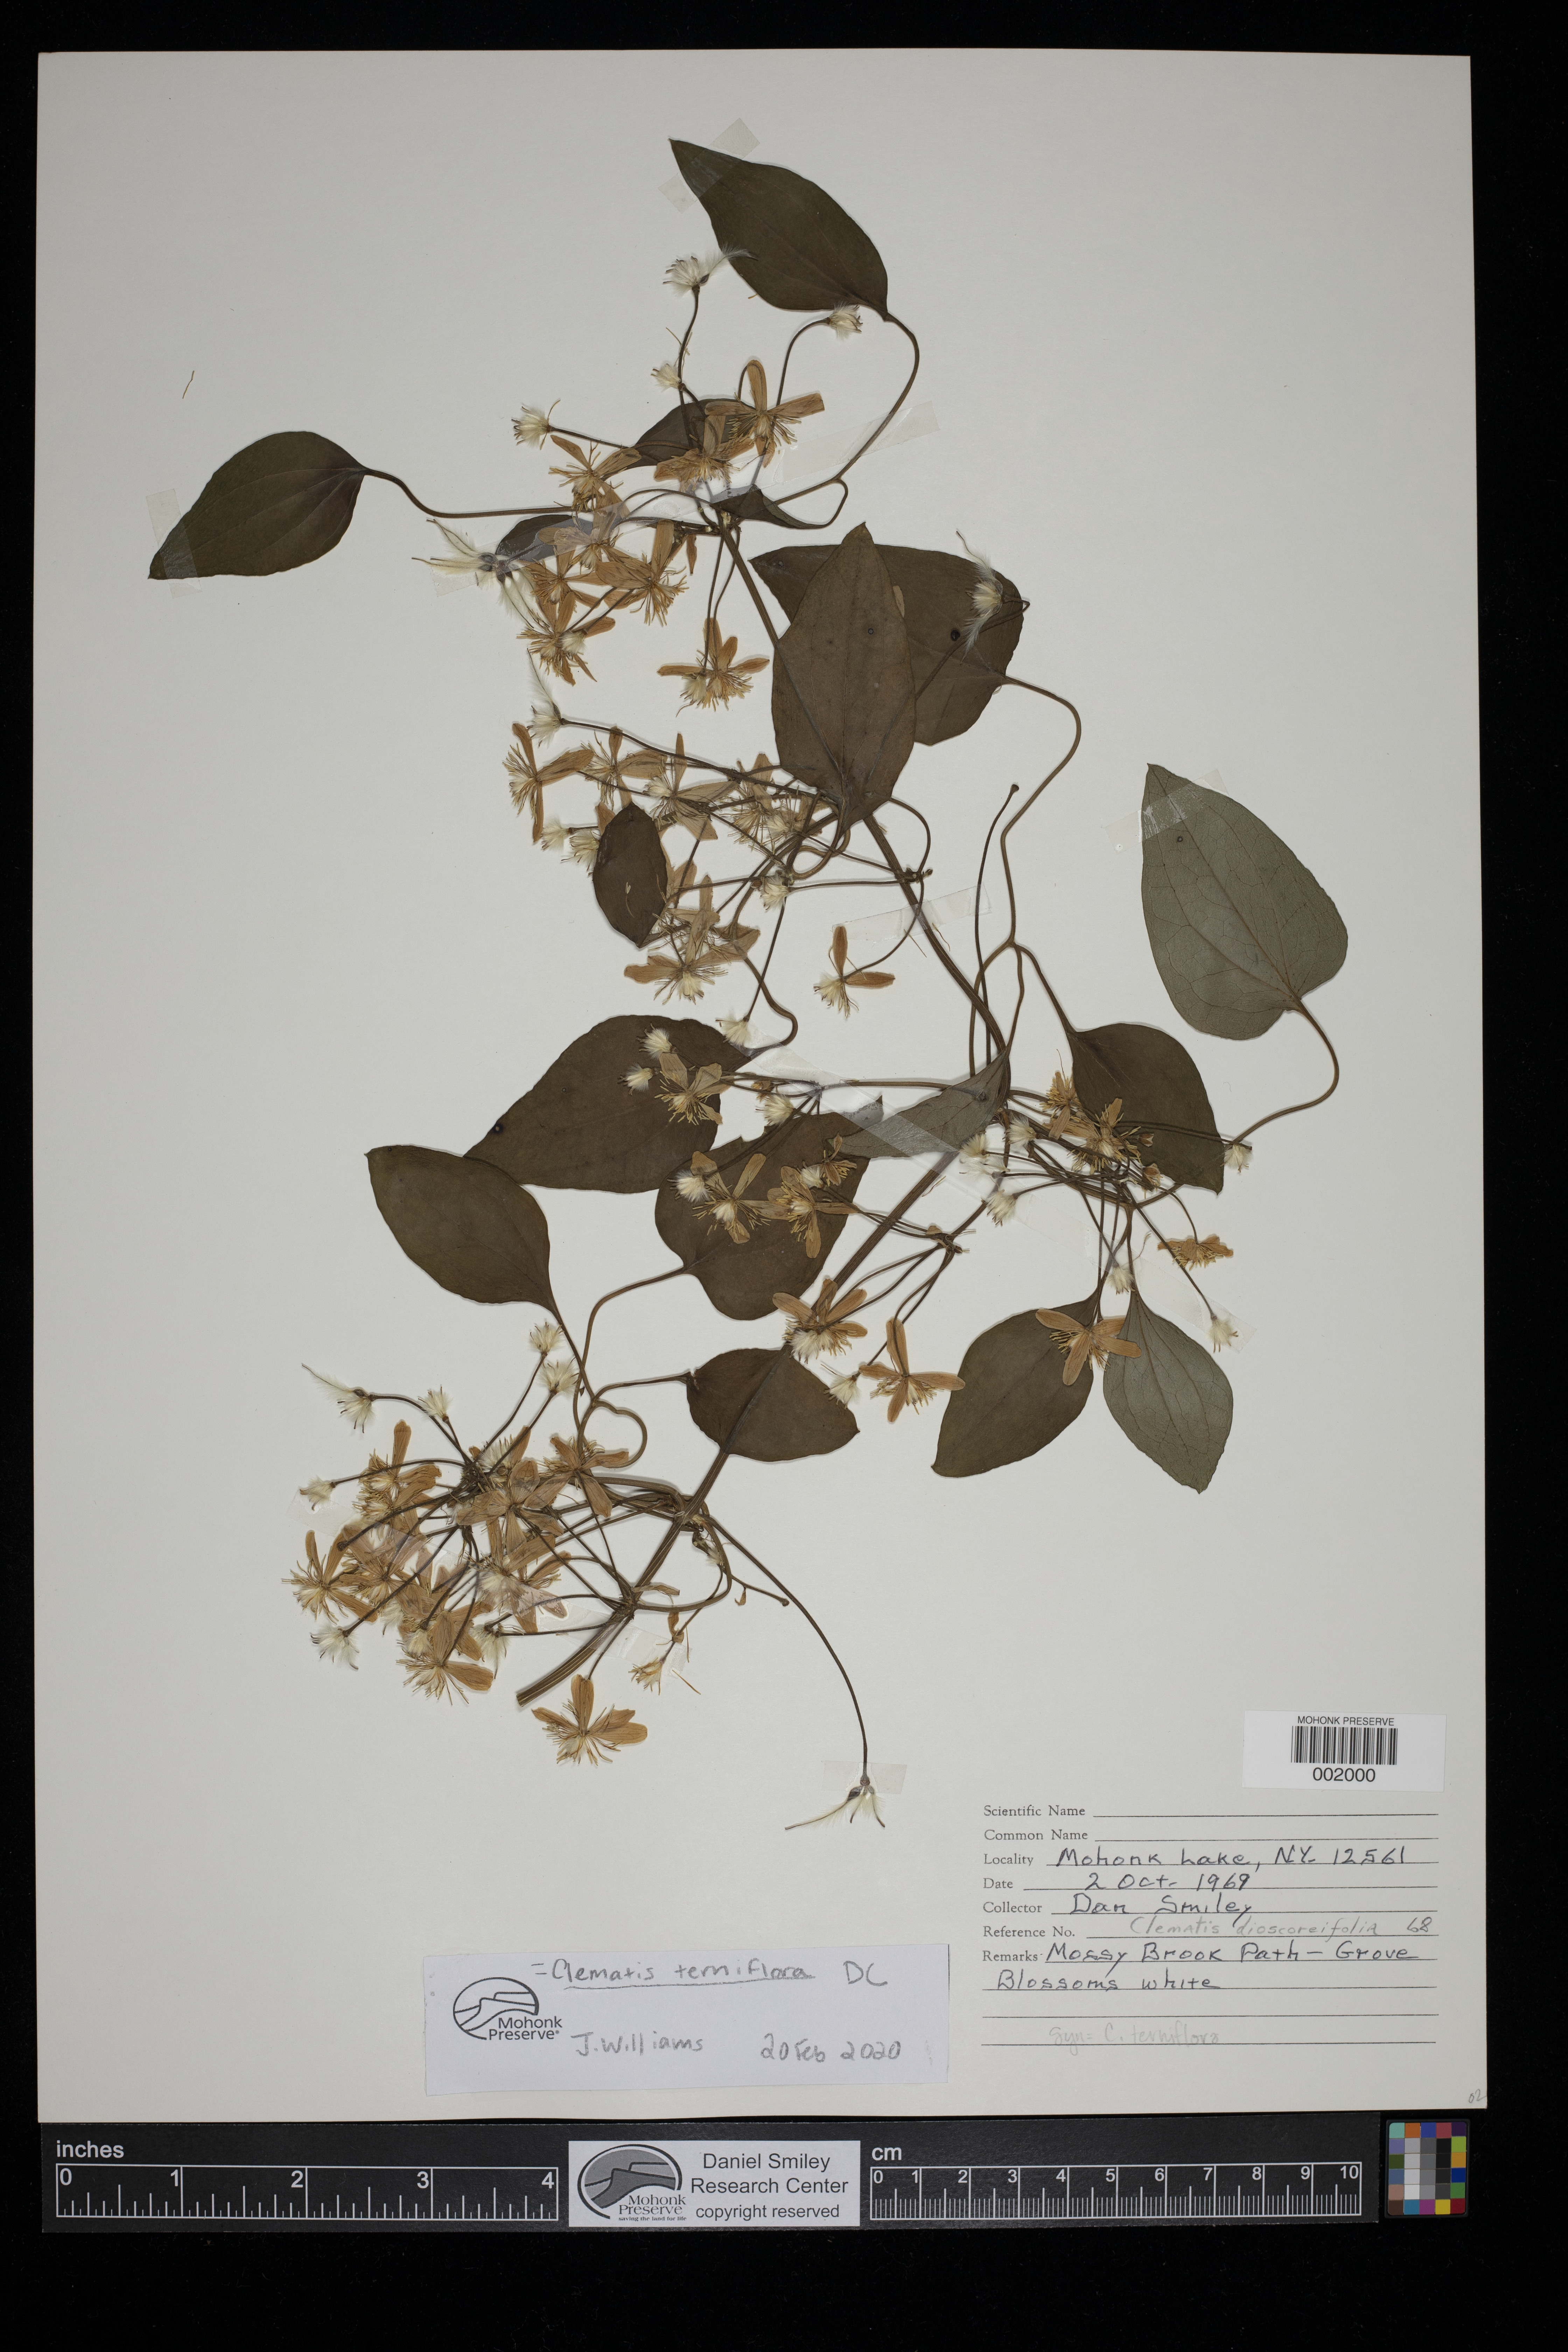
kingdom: Plantae
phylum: Tracheophyta
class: Magnoliopsida
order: Ranunculales
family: Ranunculaceae
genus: Clematis
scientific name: Clematis terniflora
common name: Sweet autumn clematis
